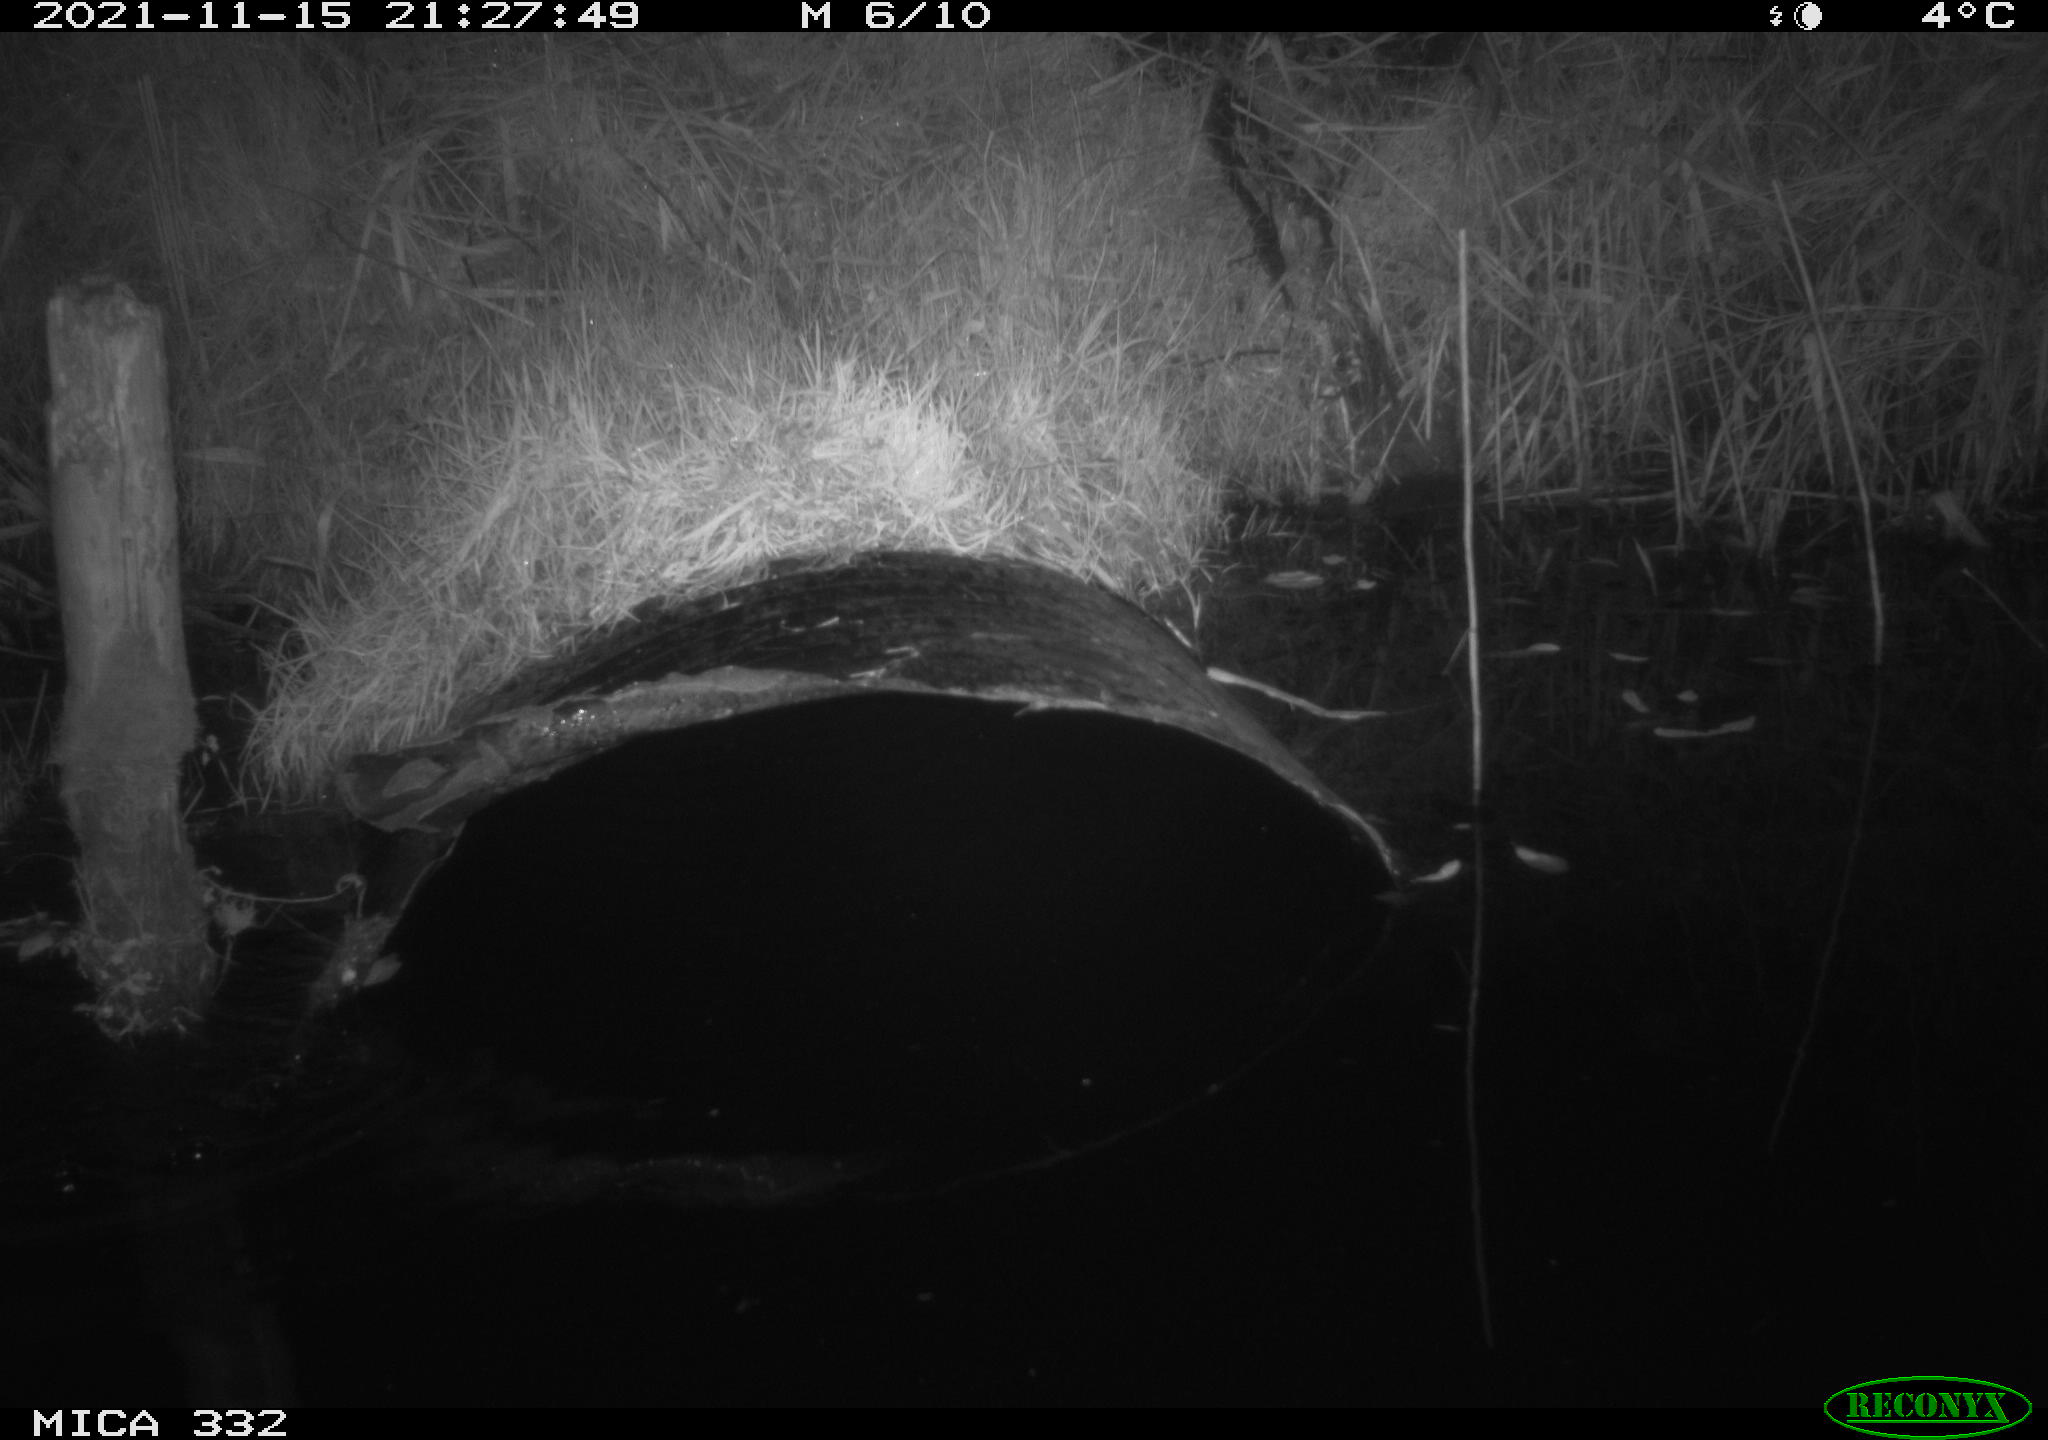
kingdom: Animalia
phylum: Chordata
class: Mammalia
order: Carnivora
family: Mustelidae
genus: Lutra
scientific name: Lutra lutra
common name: European otter
